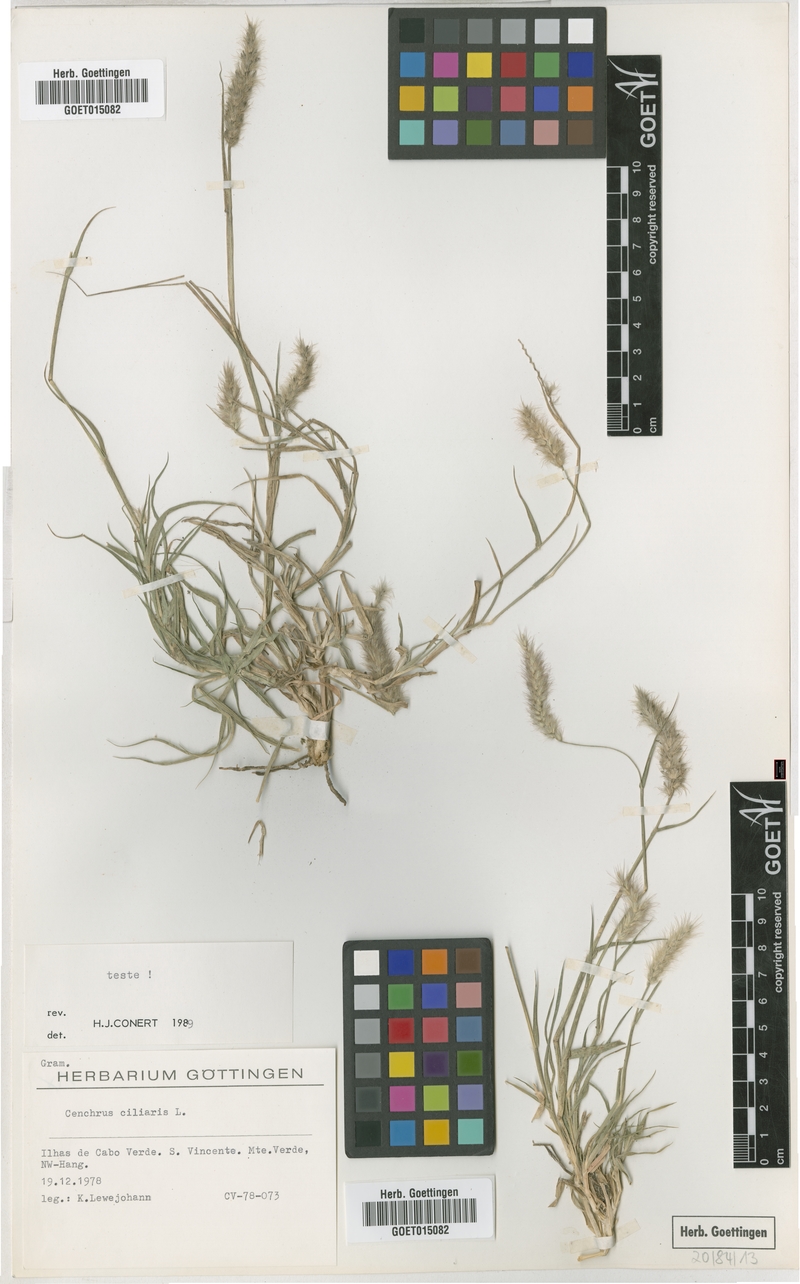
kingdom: Plantae
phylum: Tracheophyta
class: Liliopsida
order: Poales
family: Poaceae
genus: Cenchrus
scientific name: Cenchrus ciliaris
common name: Buffelgrass
